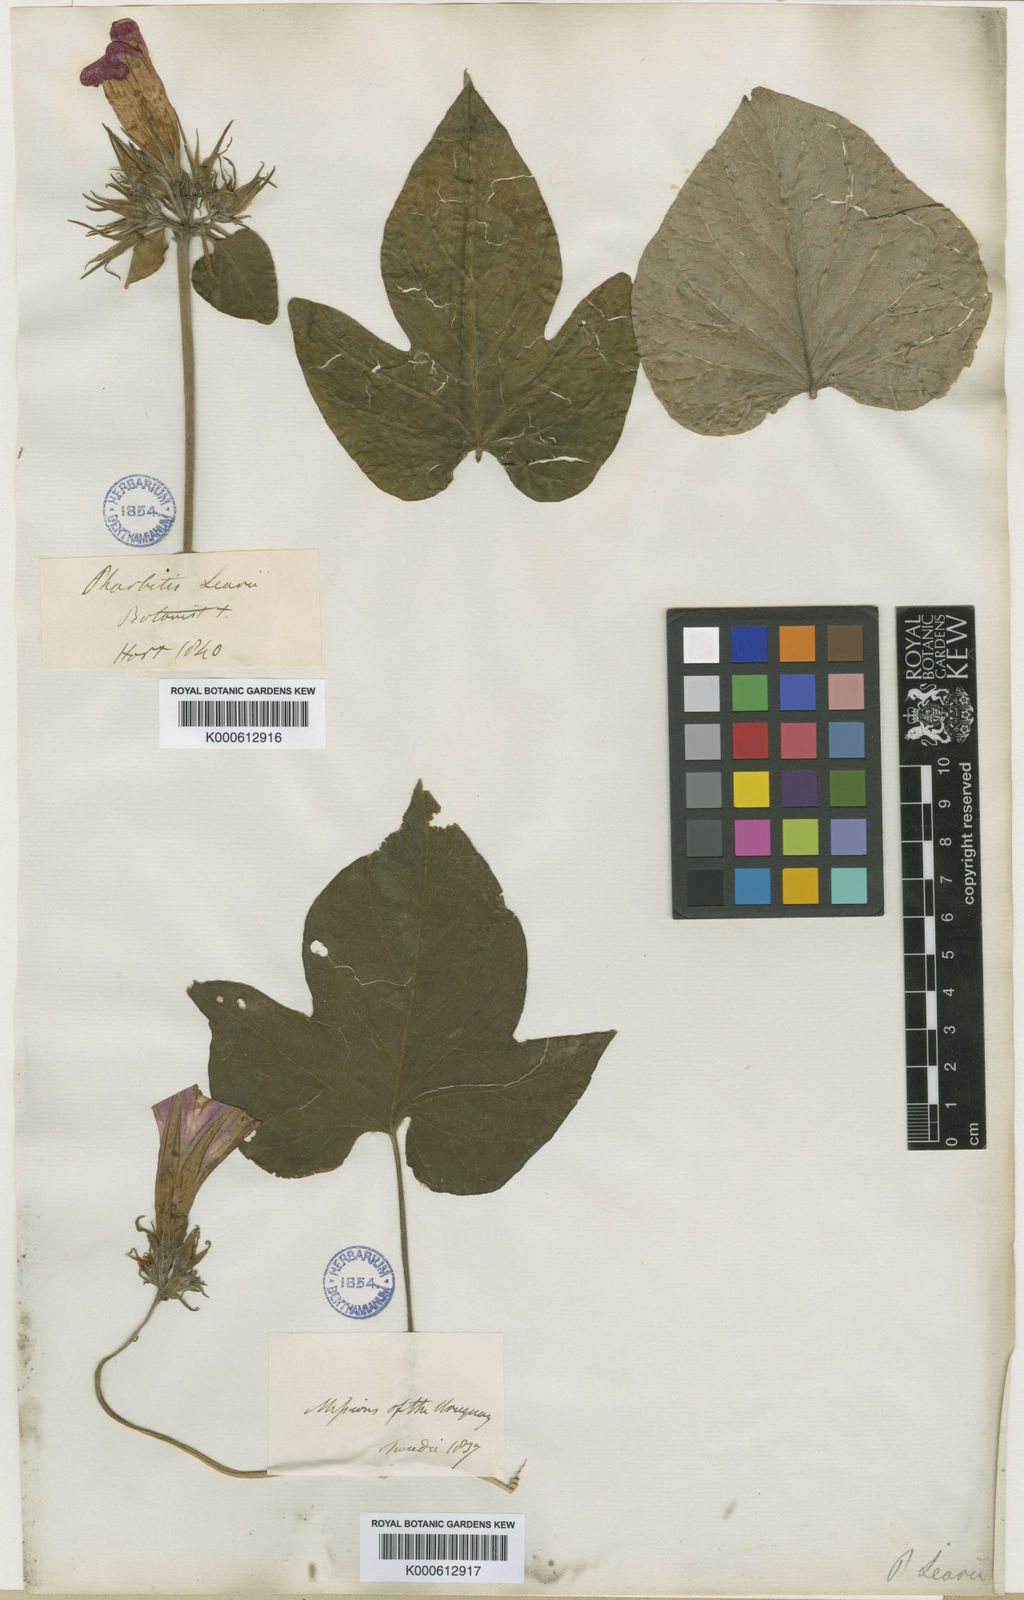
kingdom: Plantae
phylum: Tracheophyta
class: Magnoliopsida
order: Solanales
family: Convolvulaceae
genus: Ipomoea
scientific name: Ipomoea indica
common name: Blue dawnflower
